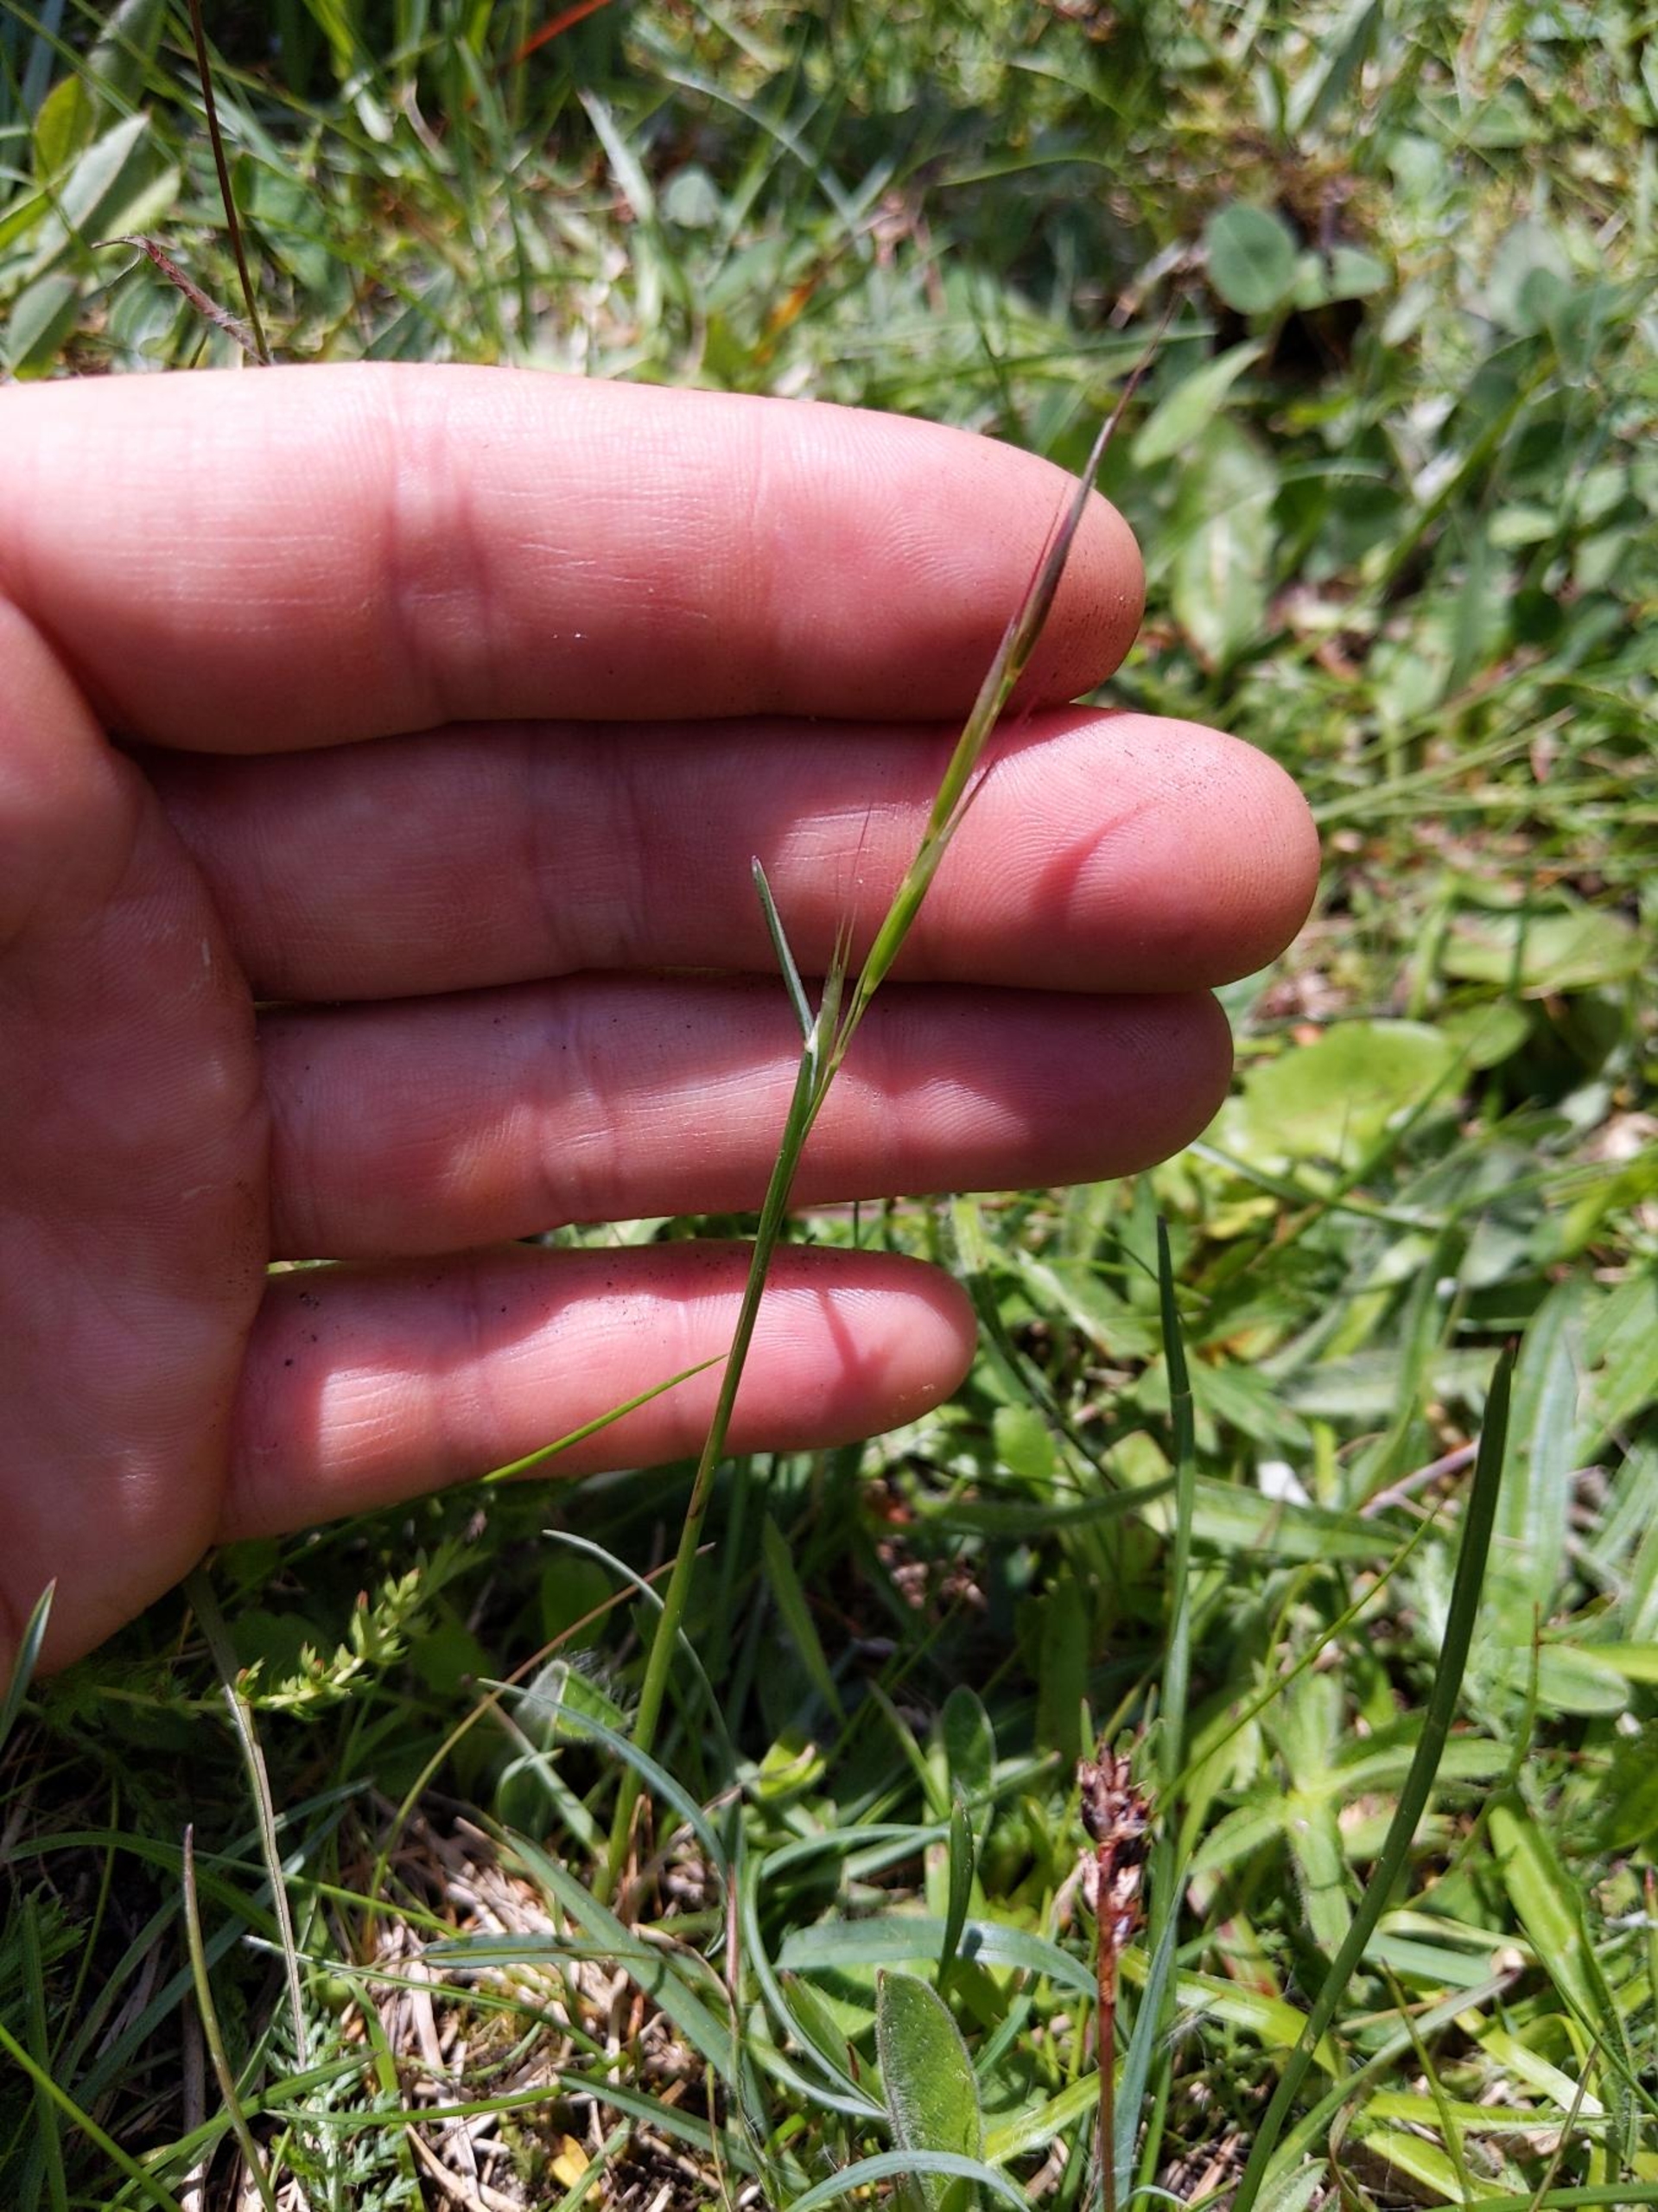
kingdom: Plantae
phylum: Tracheophyta
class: Liliopsida
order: Poales
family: Poaceae
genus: Avenula
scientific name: Avenula pubescens
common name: Dunet havre
